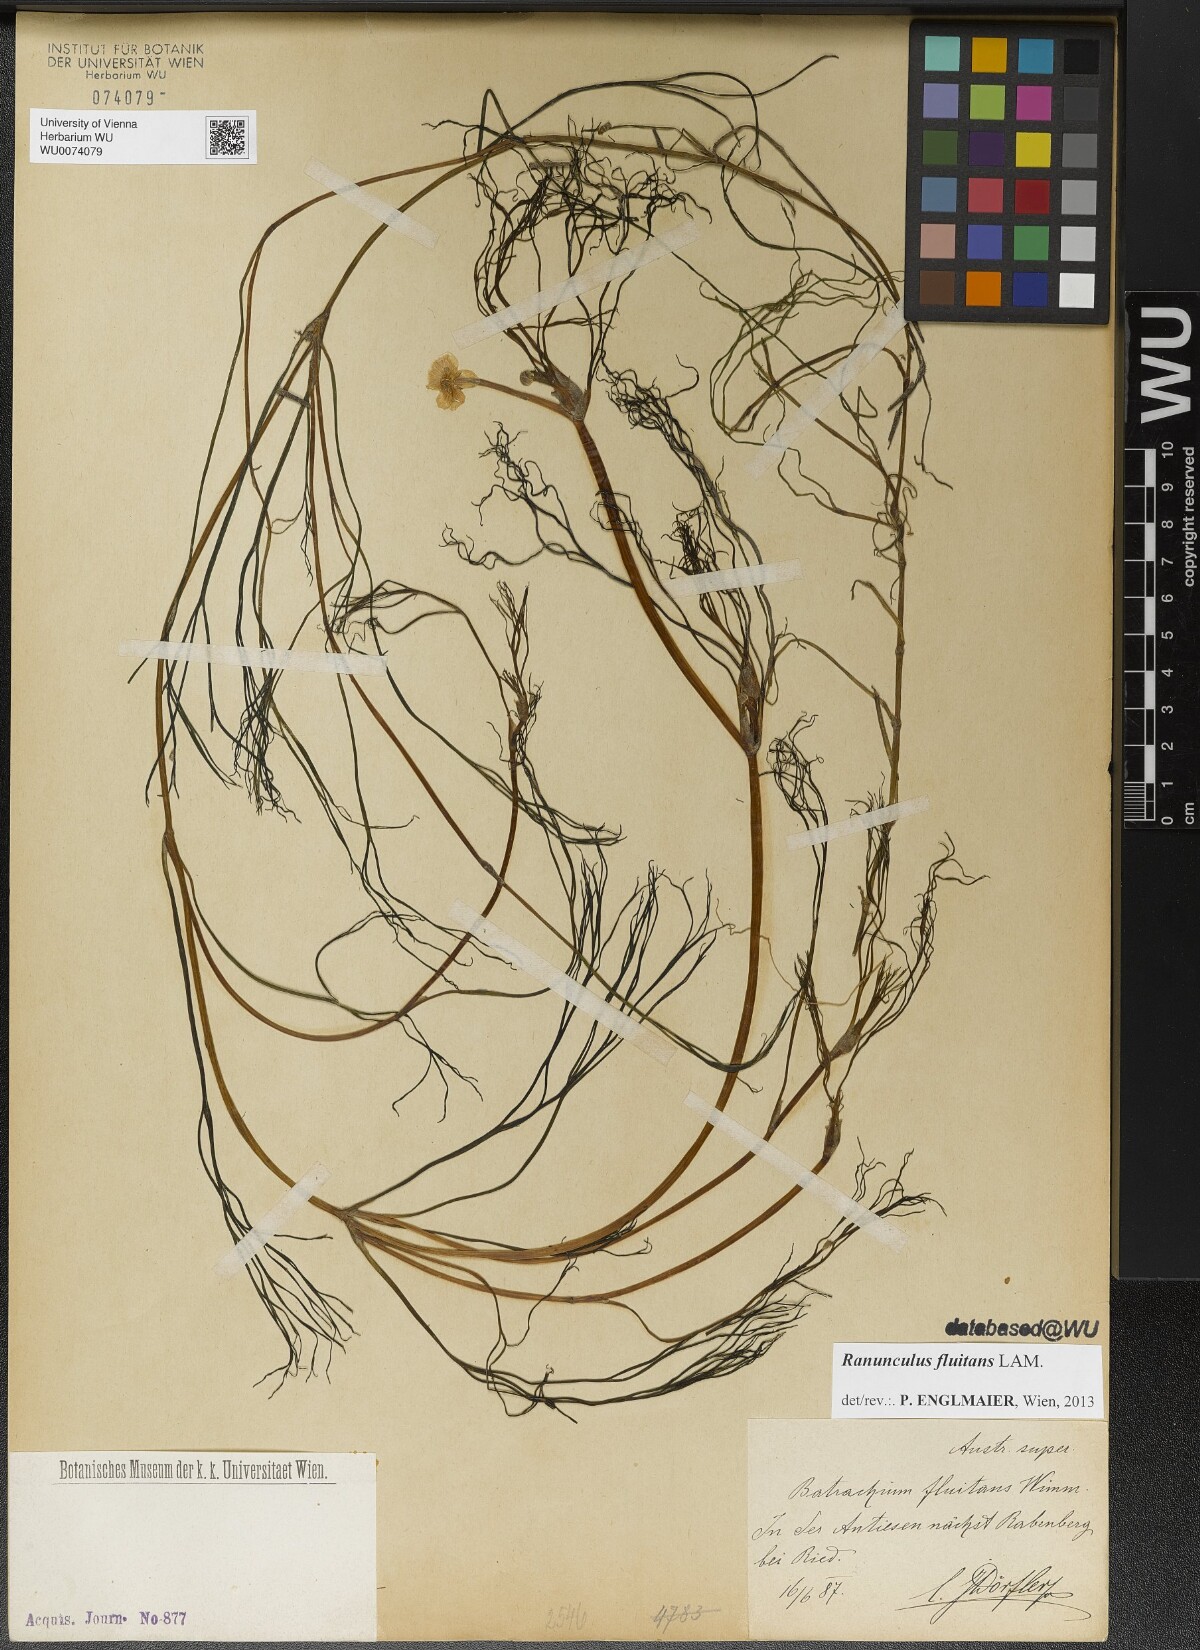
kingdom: Plantae
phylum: Tracheophyta
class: Magnoliopsida
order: Ranunculales
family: Ranunculaceae
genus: Ranunculus
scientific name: Ranunculus fluitans
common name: River water-crowfoot
